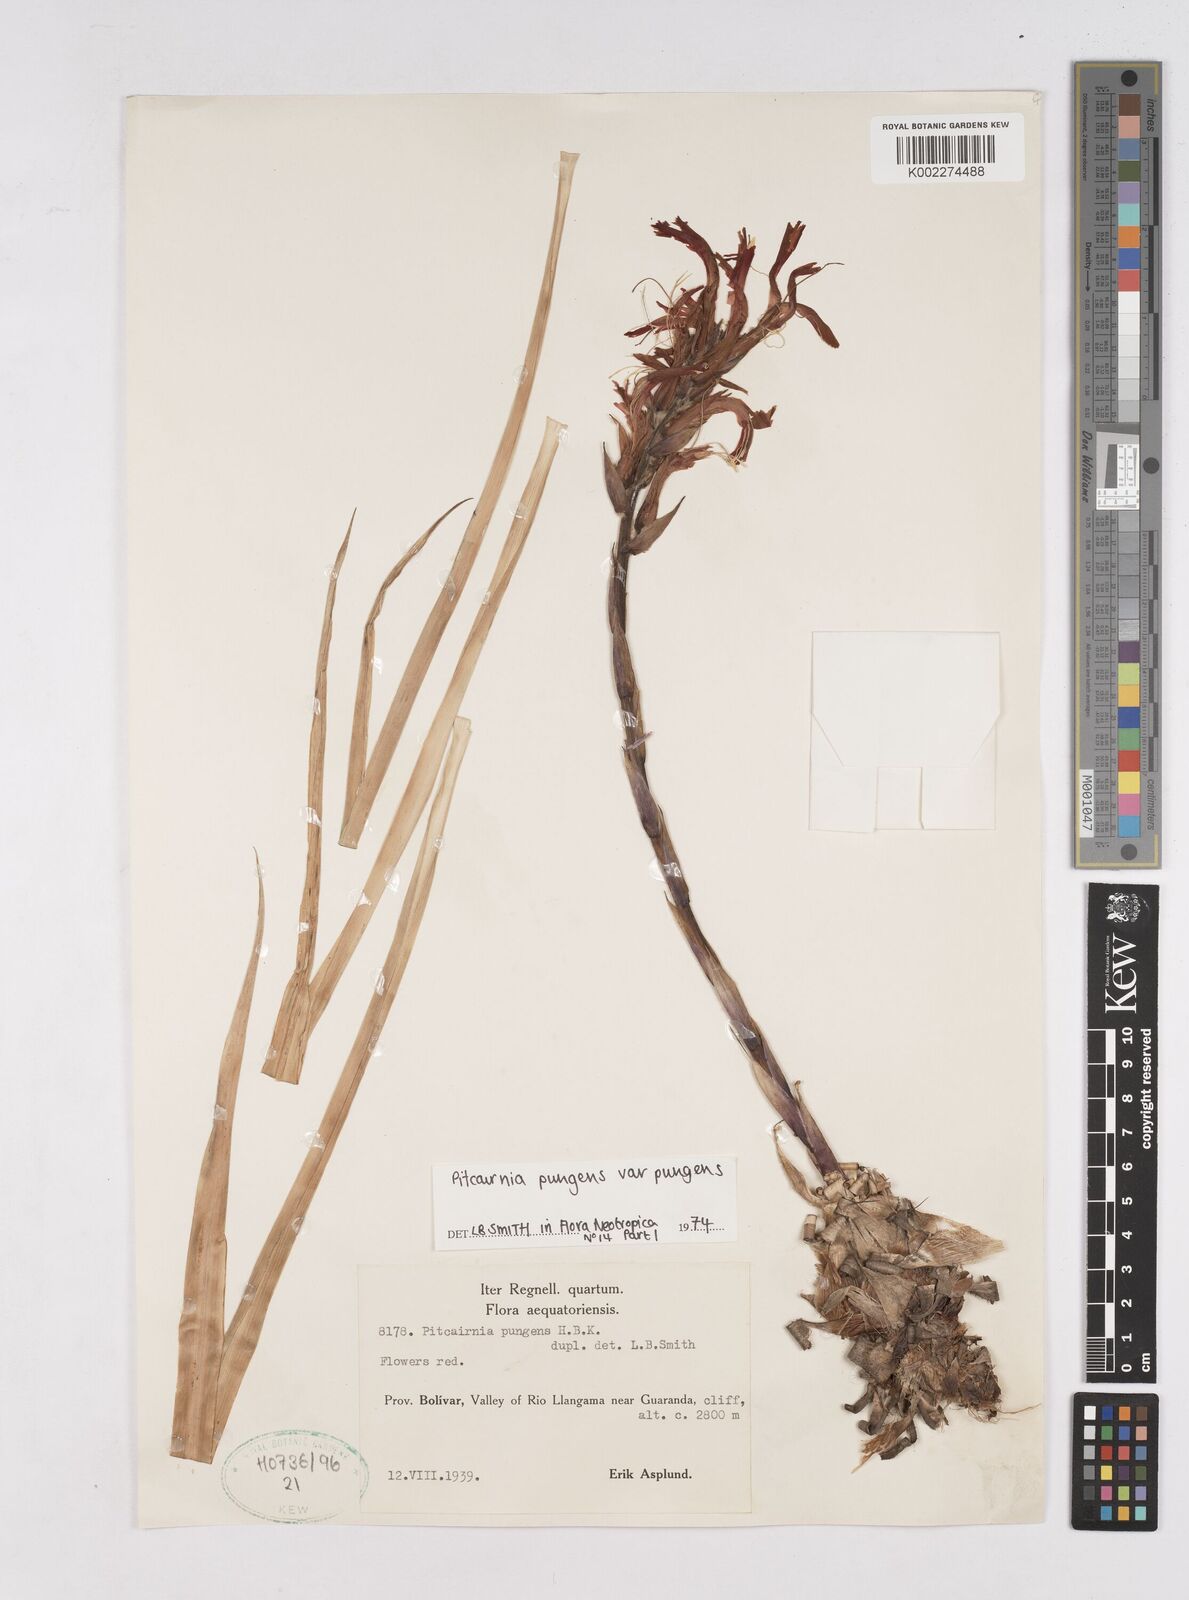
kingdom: Plantae
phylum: Tracheophyta
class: Liliopsida
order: Poales
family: Bromeliaceae
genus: Pitcairnia
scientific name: Pitcairnia pungens
